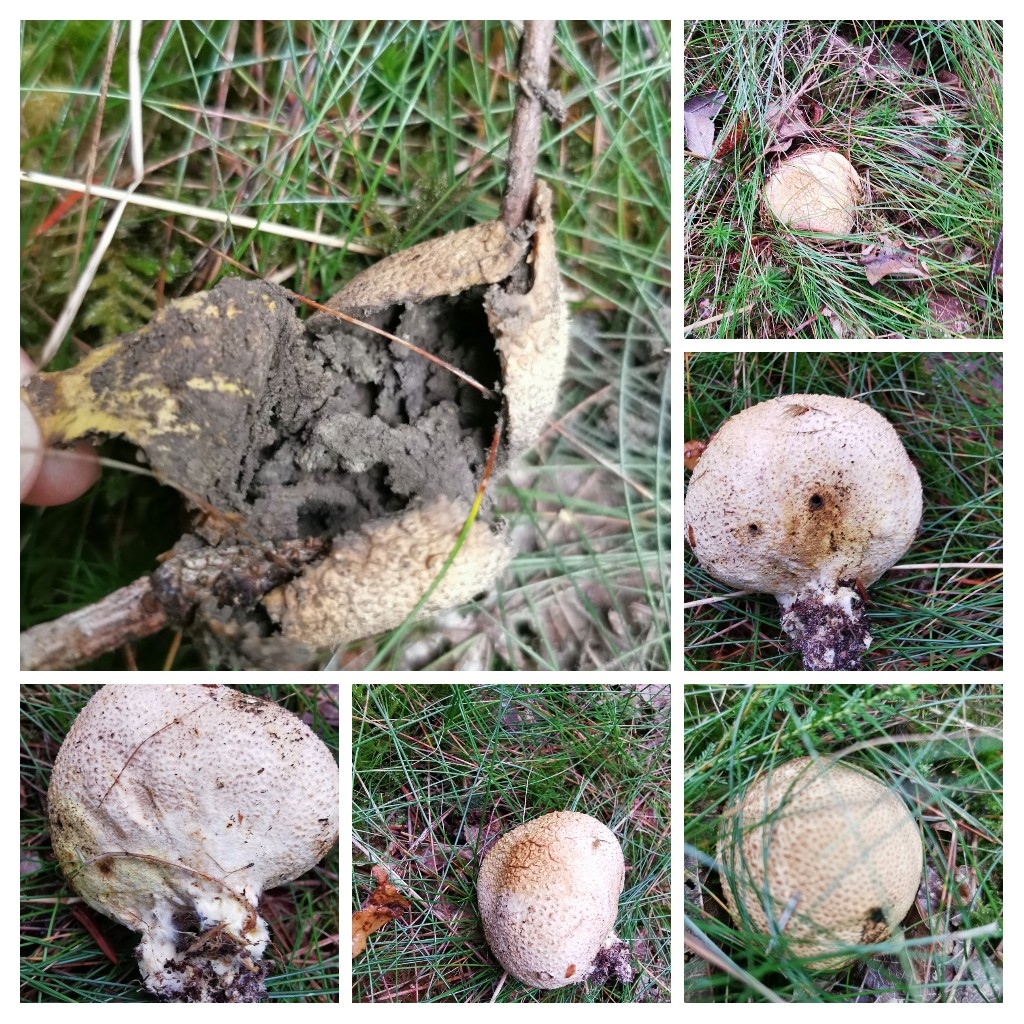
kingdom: Fungi
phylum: Basidiomycota
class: Agaricomycetes
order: Boletales
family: Sclerodermataceae
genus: Scleroderma
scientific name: Scleroderma citrinum
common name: almindelig bruskbold
